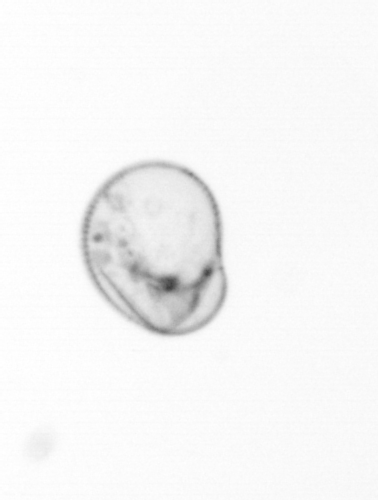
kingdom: Chromista
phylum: Myzozoa
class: Dinophyceae
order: Noctilucales
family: Noctilucaceae
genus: Noctiluca
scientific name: Noctiluca scintillans
